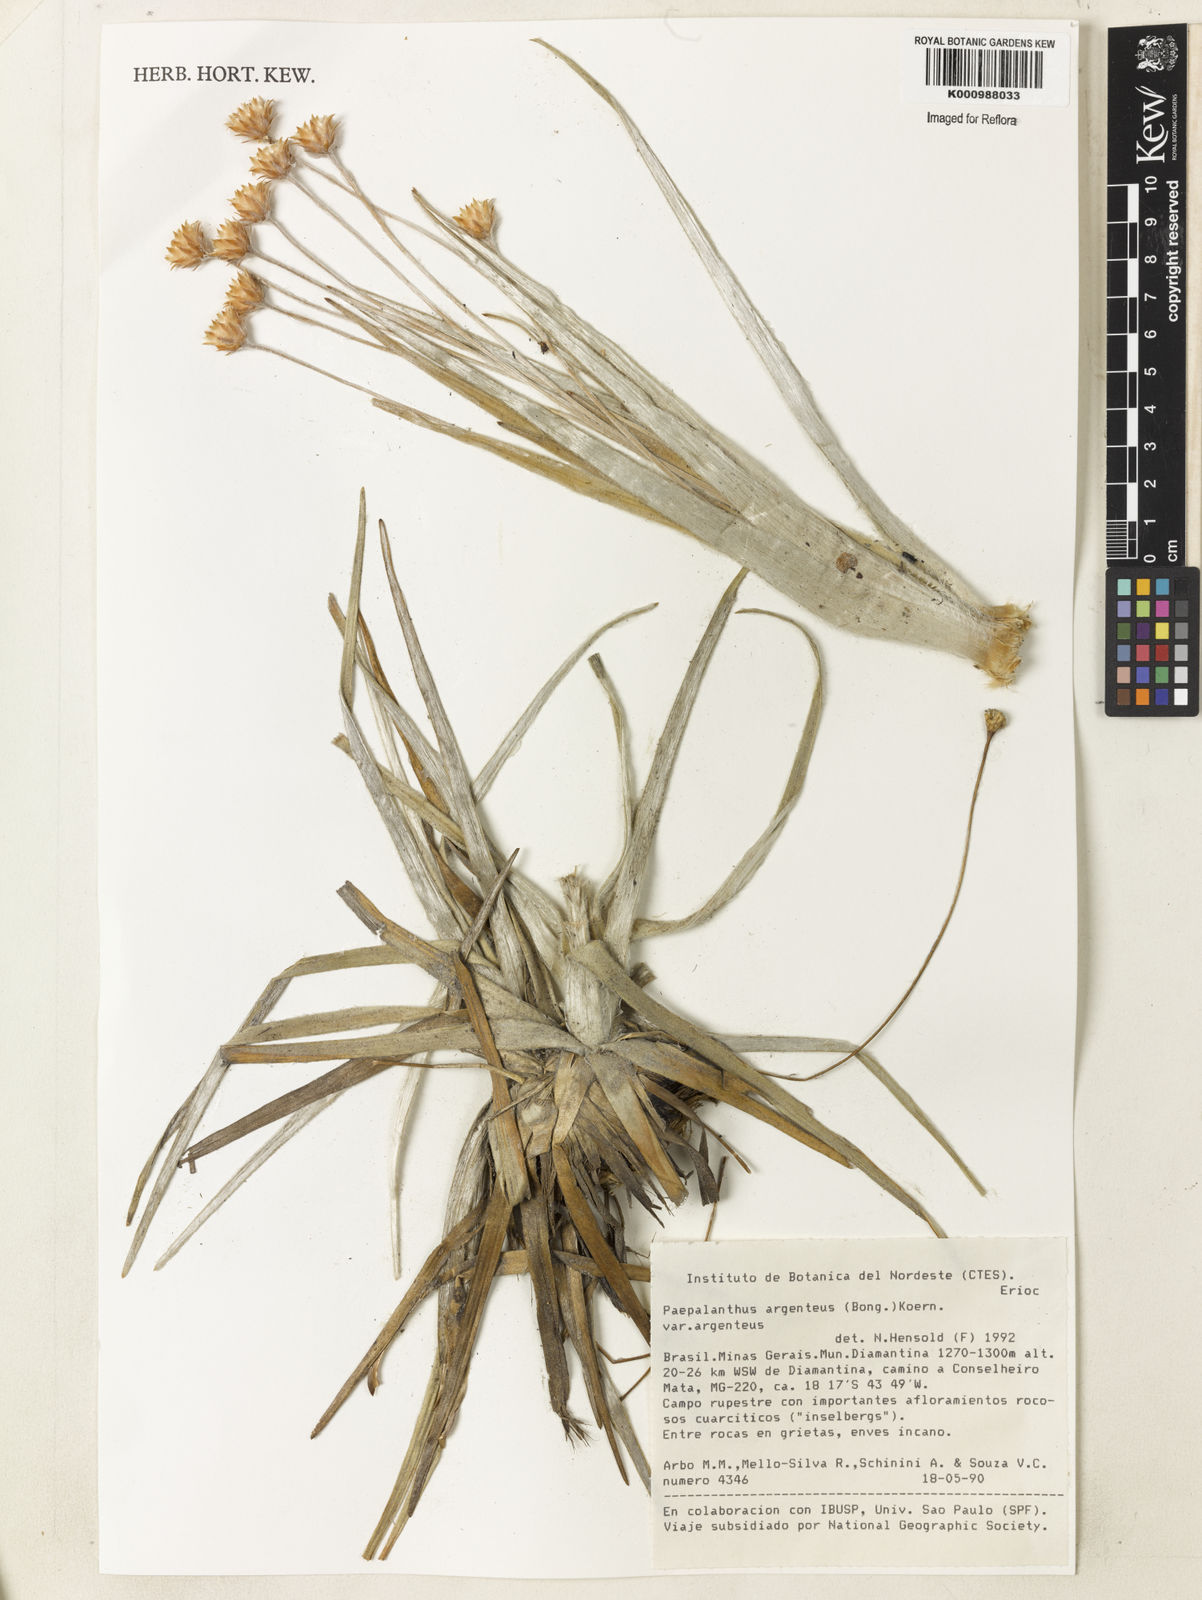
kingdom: Plantae
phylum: Tracheophyta
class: Liliopsida
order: Poales
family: Eriocaulaceae
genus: Paepalanthus
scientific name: Paepalanthus
